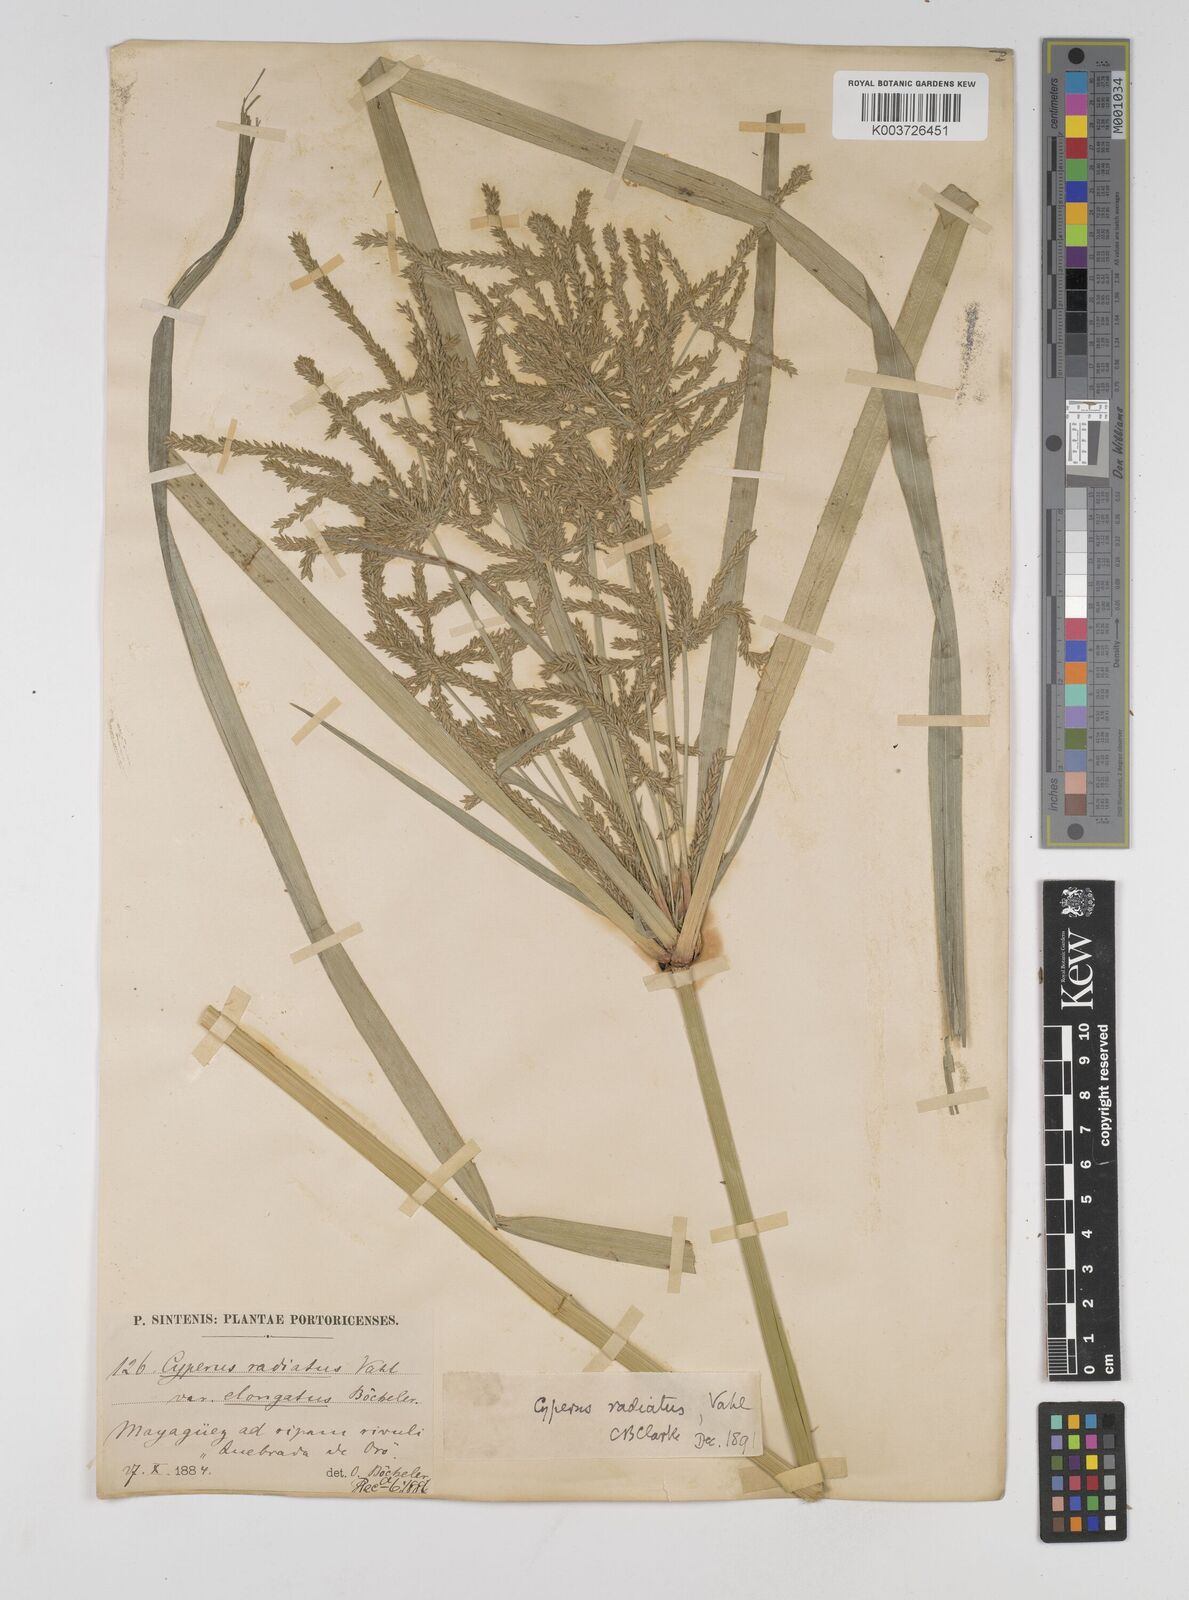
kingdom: Plantae
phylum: Tracheophyta
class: Liliopsida
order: Poales
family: Cyperaceae
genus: Cyperus
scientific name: Cyperus imbricatus
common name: Shingle flatsedge
